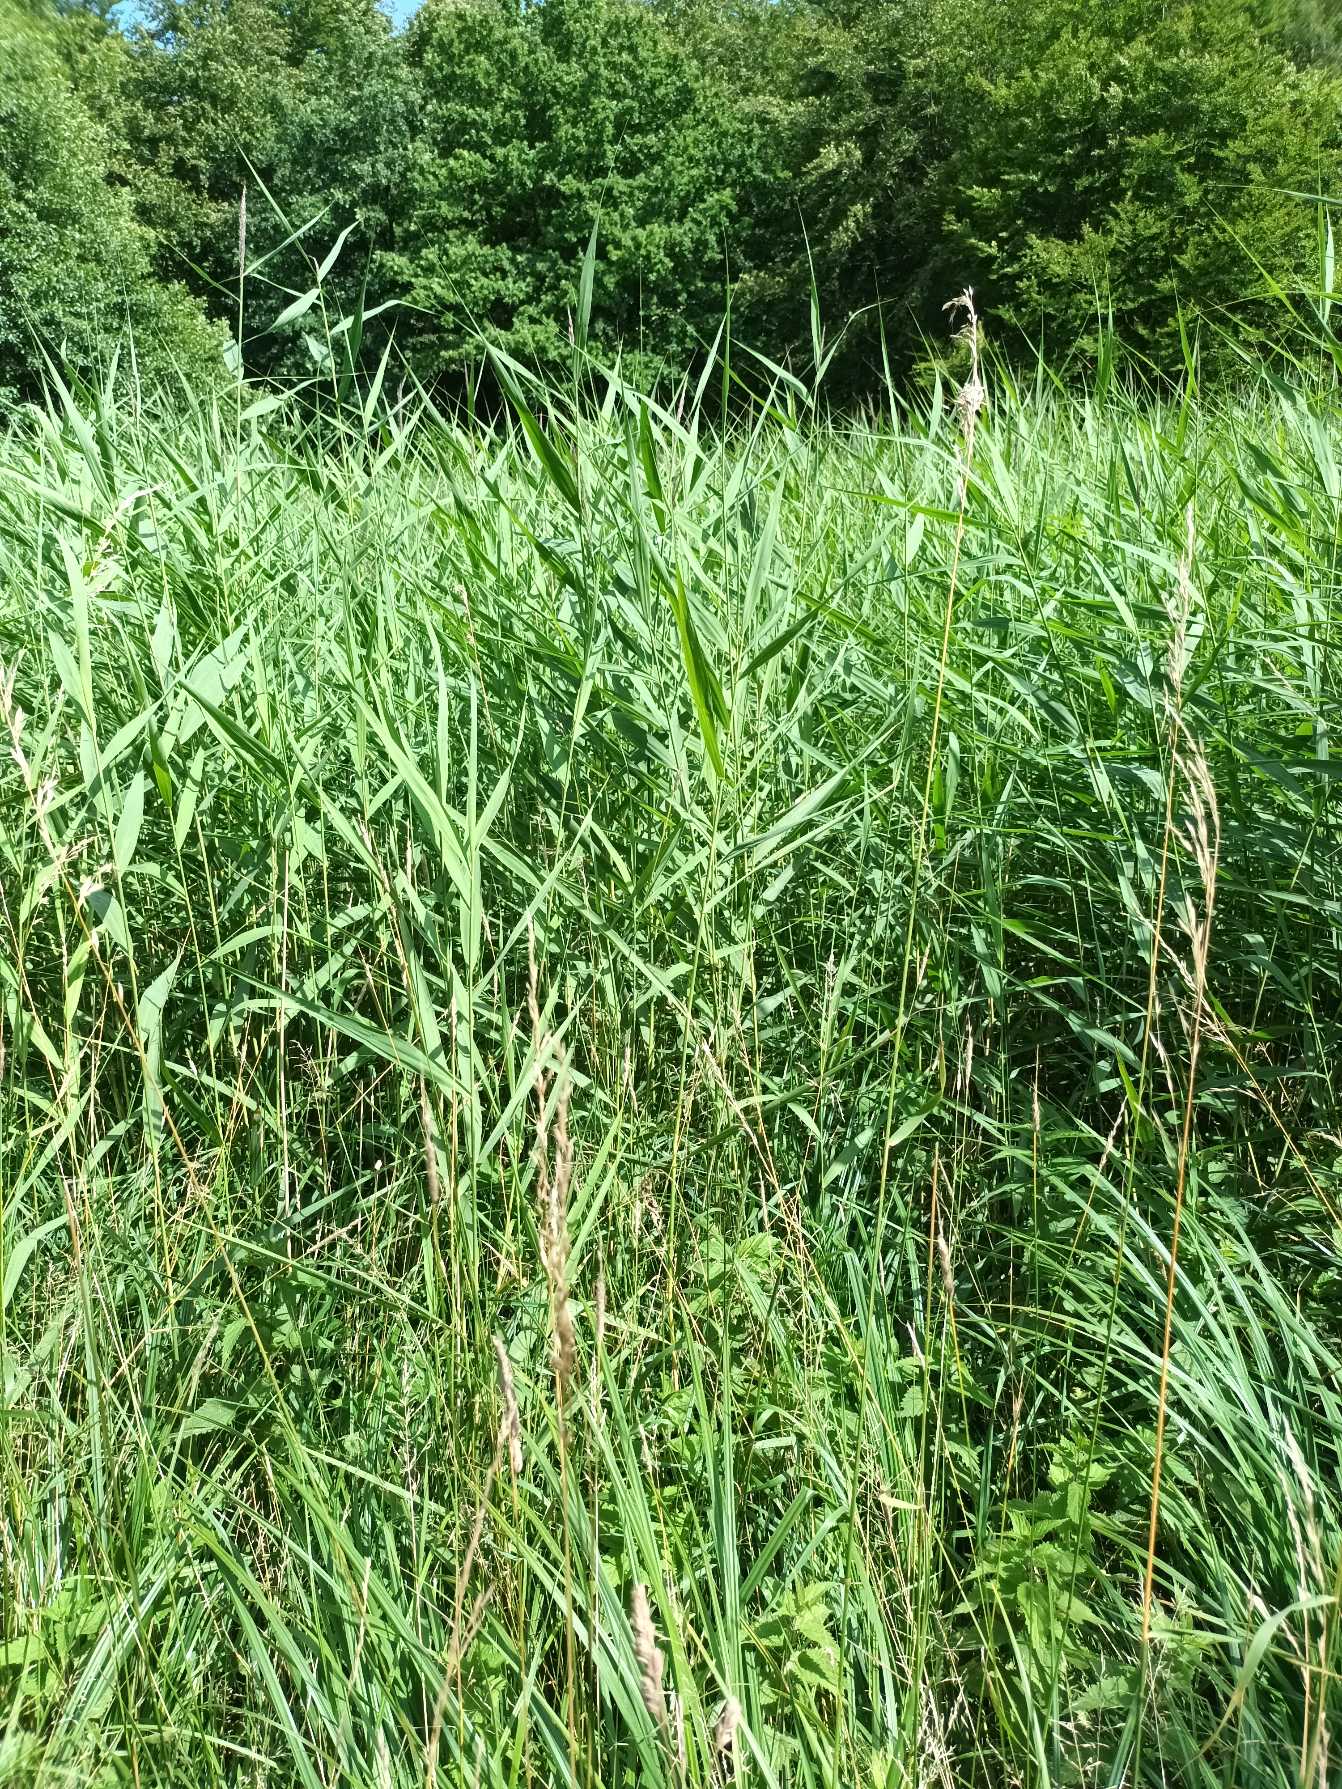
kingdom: Plantae
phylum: Tracheophyta
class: Liliopsida
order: Poales
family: Poaceae
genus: Phragmites
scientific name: Phragmites australis
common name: Tagrør
